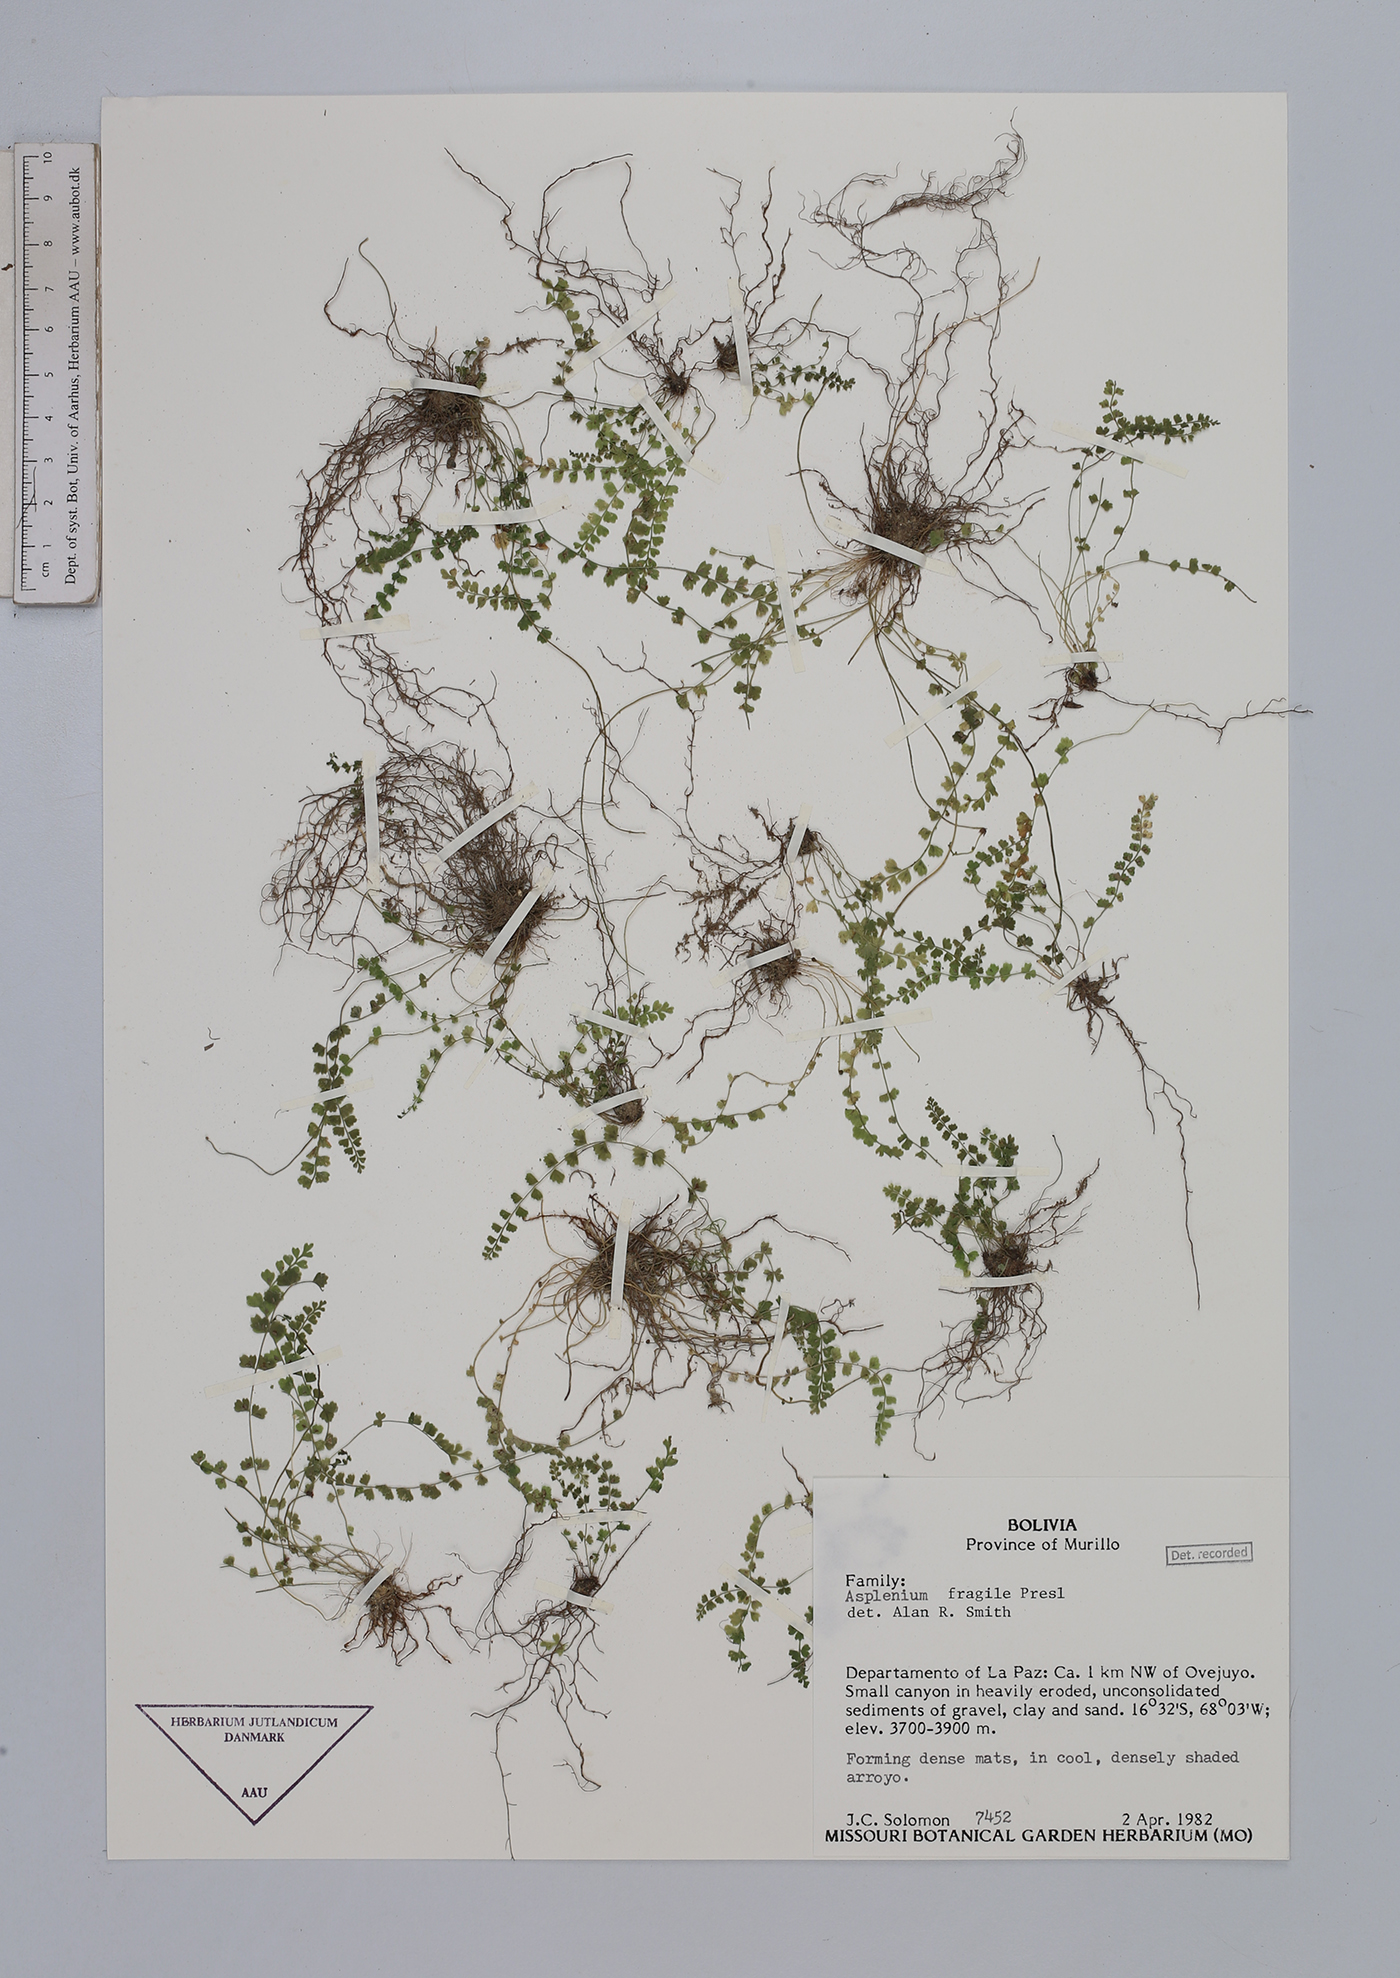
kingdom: Plantae
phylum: Tracheophyta
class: Polypodiopsida
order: Polypodiales
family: Aspleniaceae
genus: Asplenium
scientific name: Asplenium peruvianum
